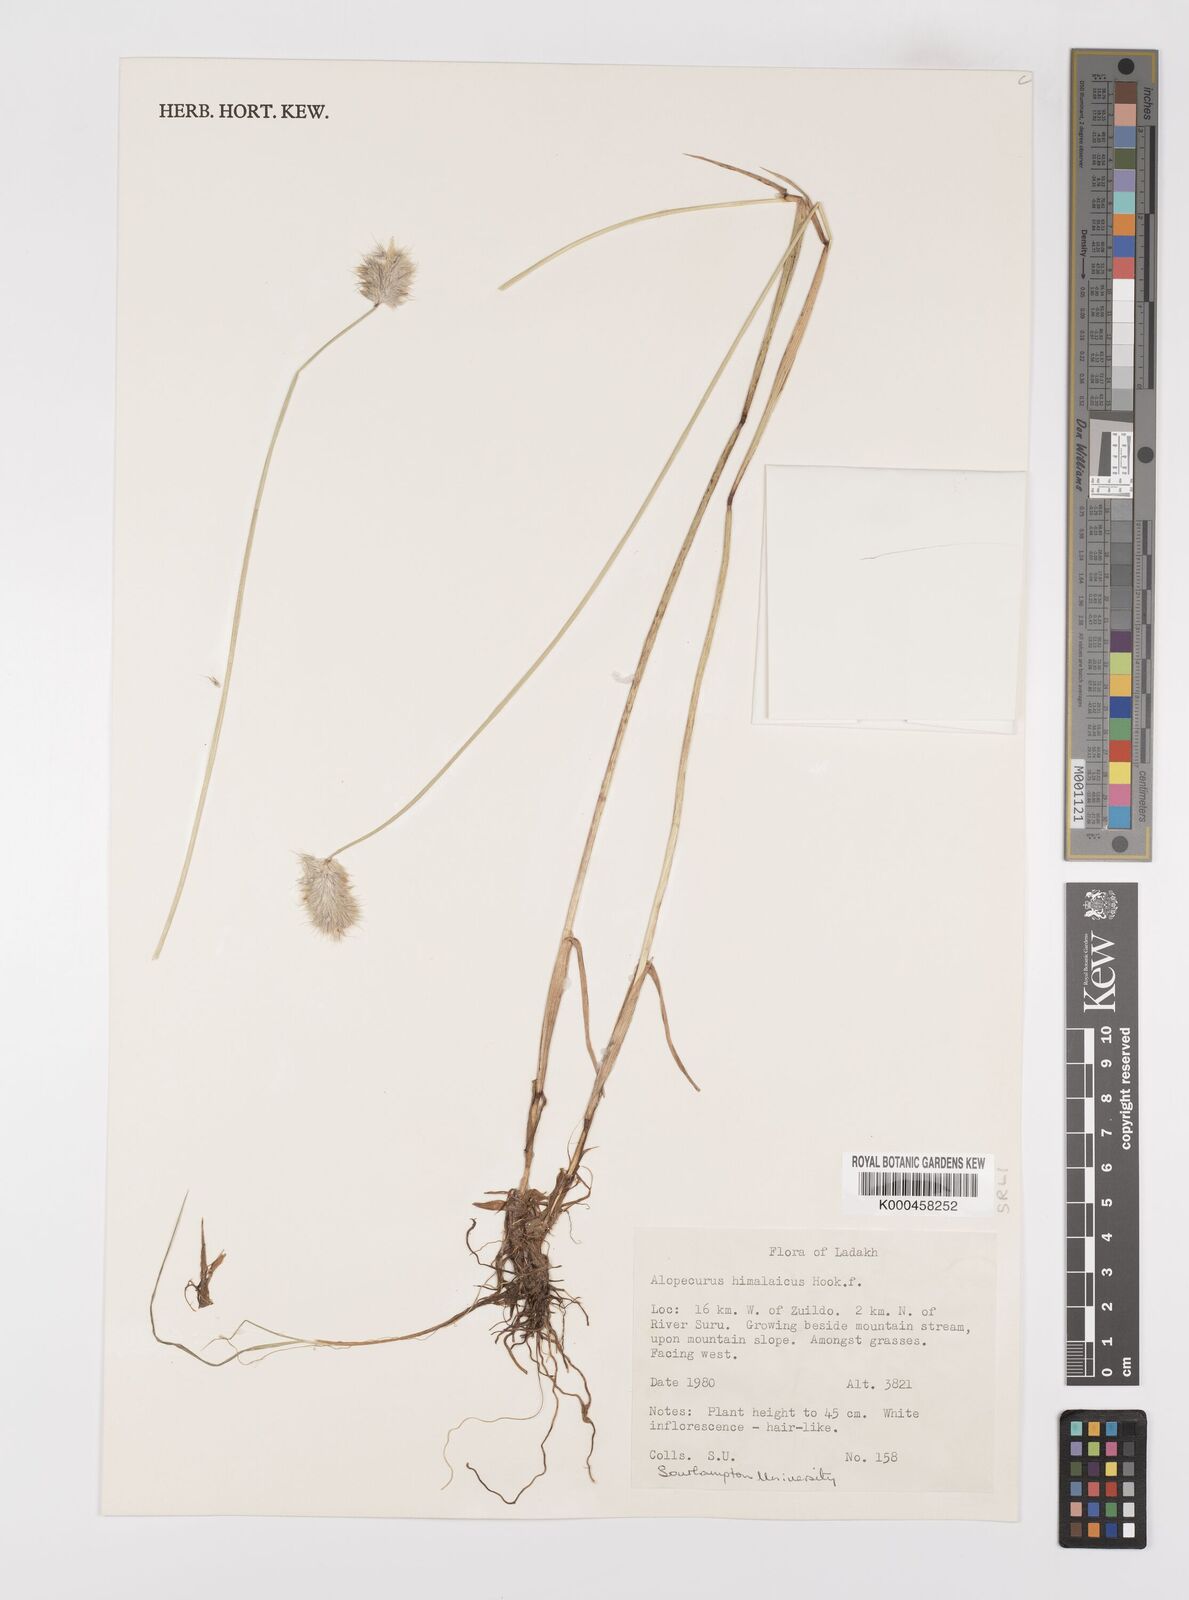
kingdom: Plantae
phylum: Tracheophyta
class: Liliopsida
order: Poales
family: Poaceae
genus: Alopecurus
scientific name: Alopecurus himalaicus
